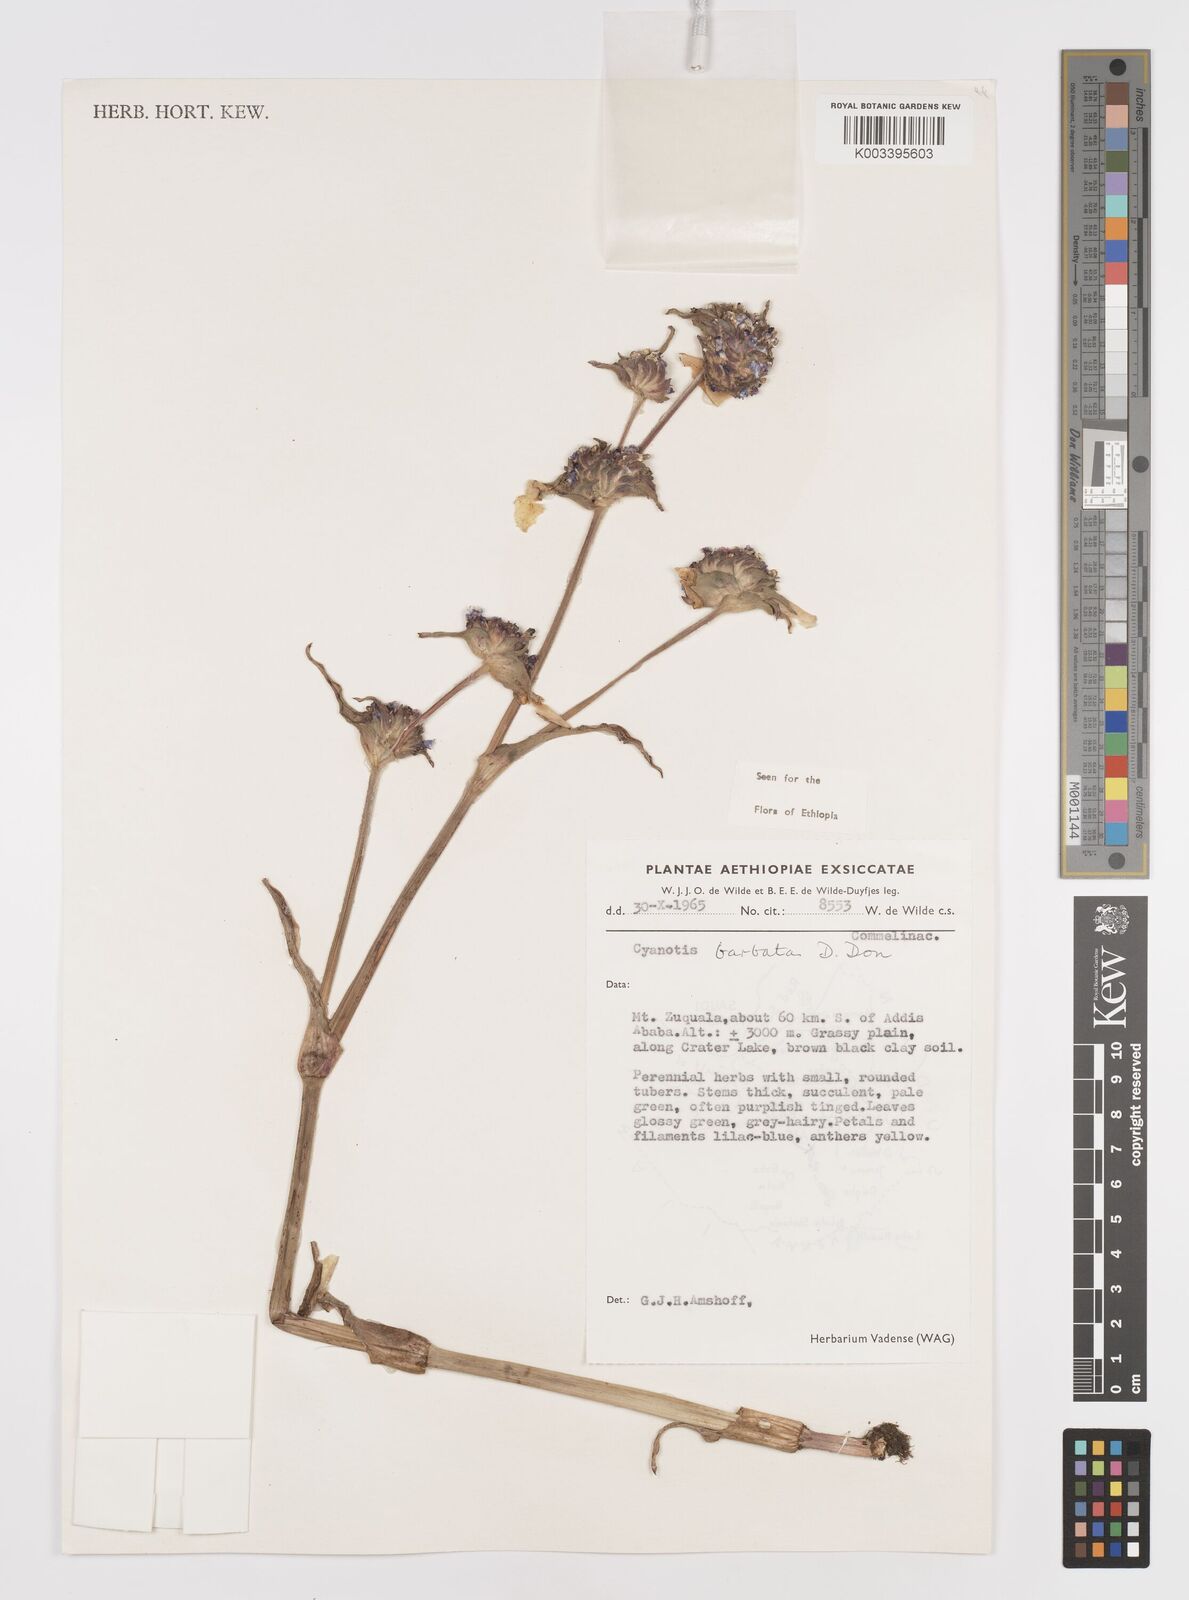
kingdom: Plantae
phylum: Tracheophyta
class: Liliopsida
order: Commelinales
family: Commelinaceae
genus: Cyanotis
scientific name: Cyanotis vaga
